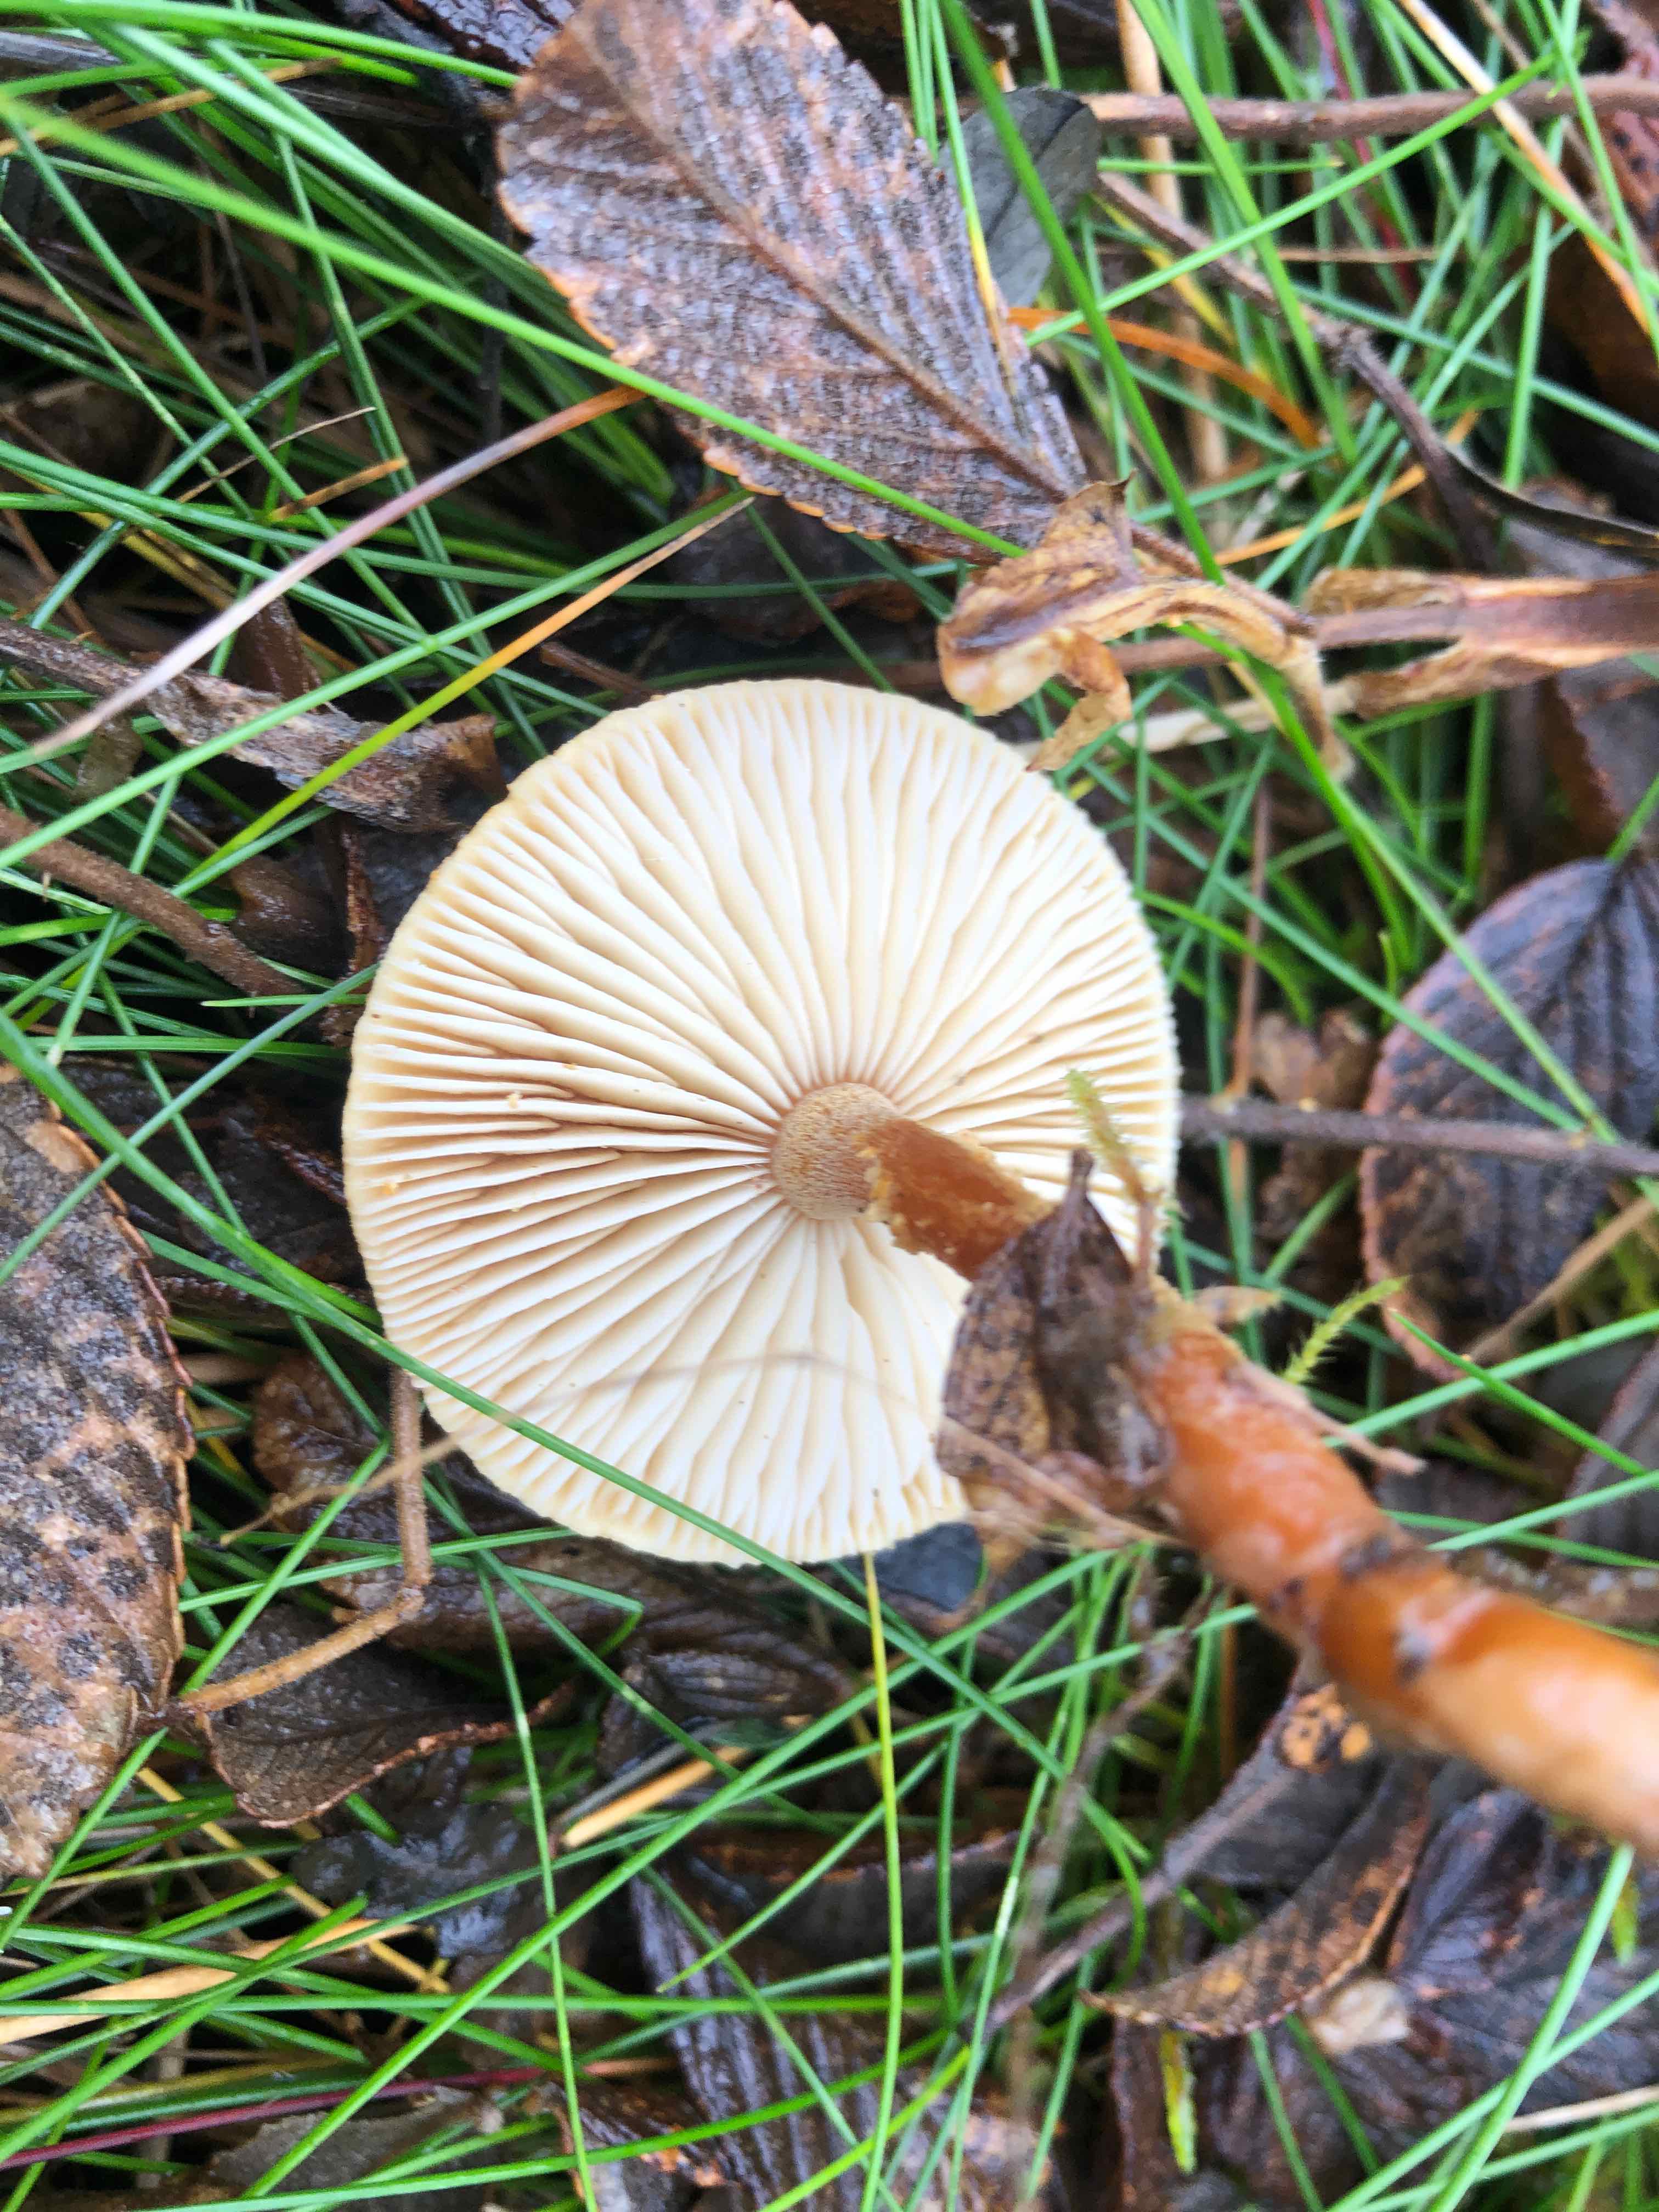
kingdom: Fungi
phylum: Basidiomycota
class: Agaricomycetes
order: Agaricales
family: Tricholomataceae
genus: Cystoderma
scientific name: Cystoderma amianthinum
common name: okkergul grynhat
